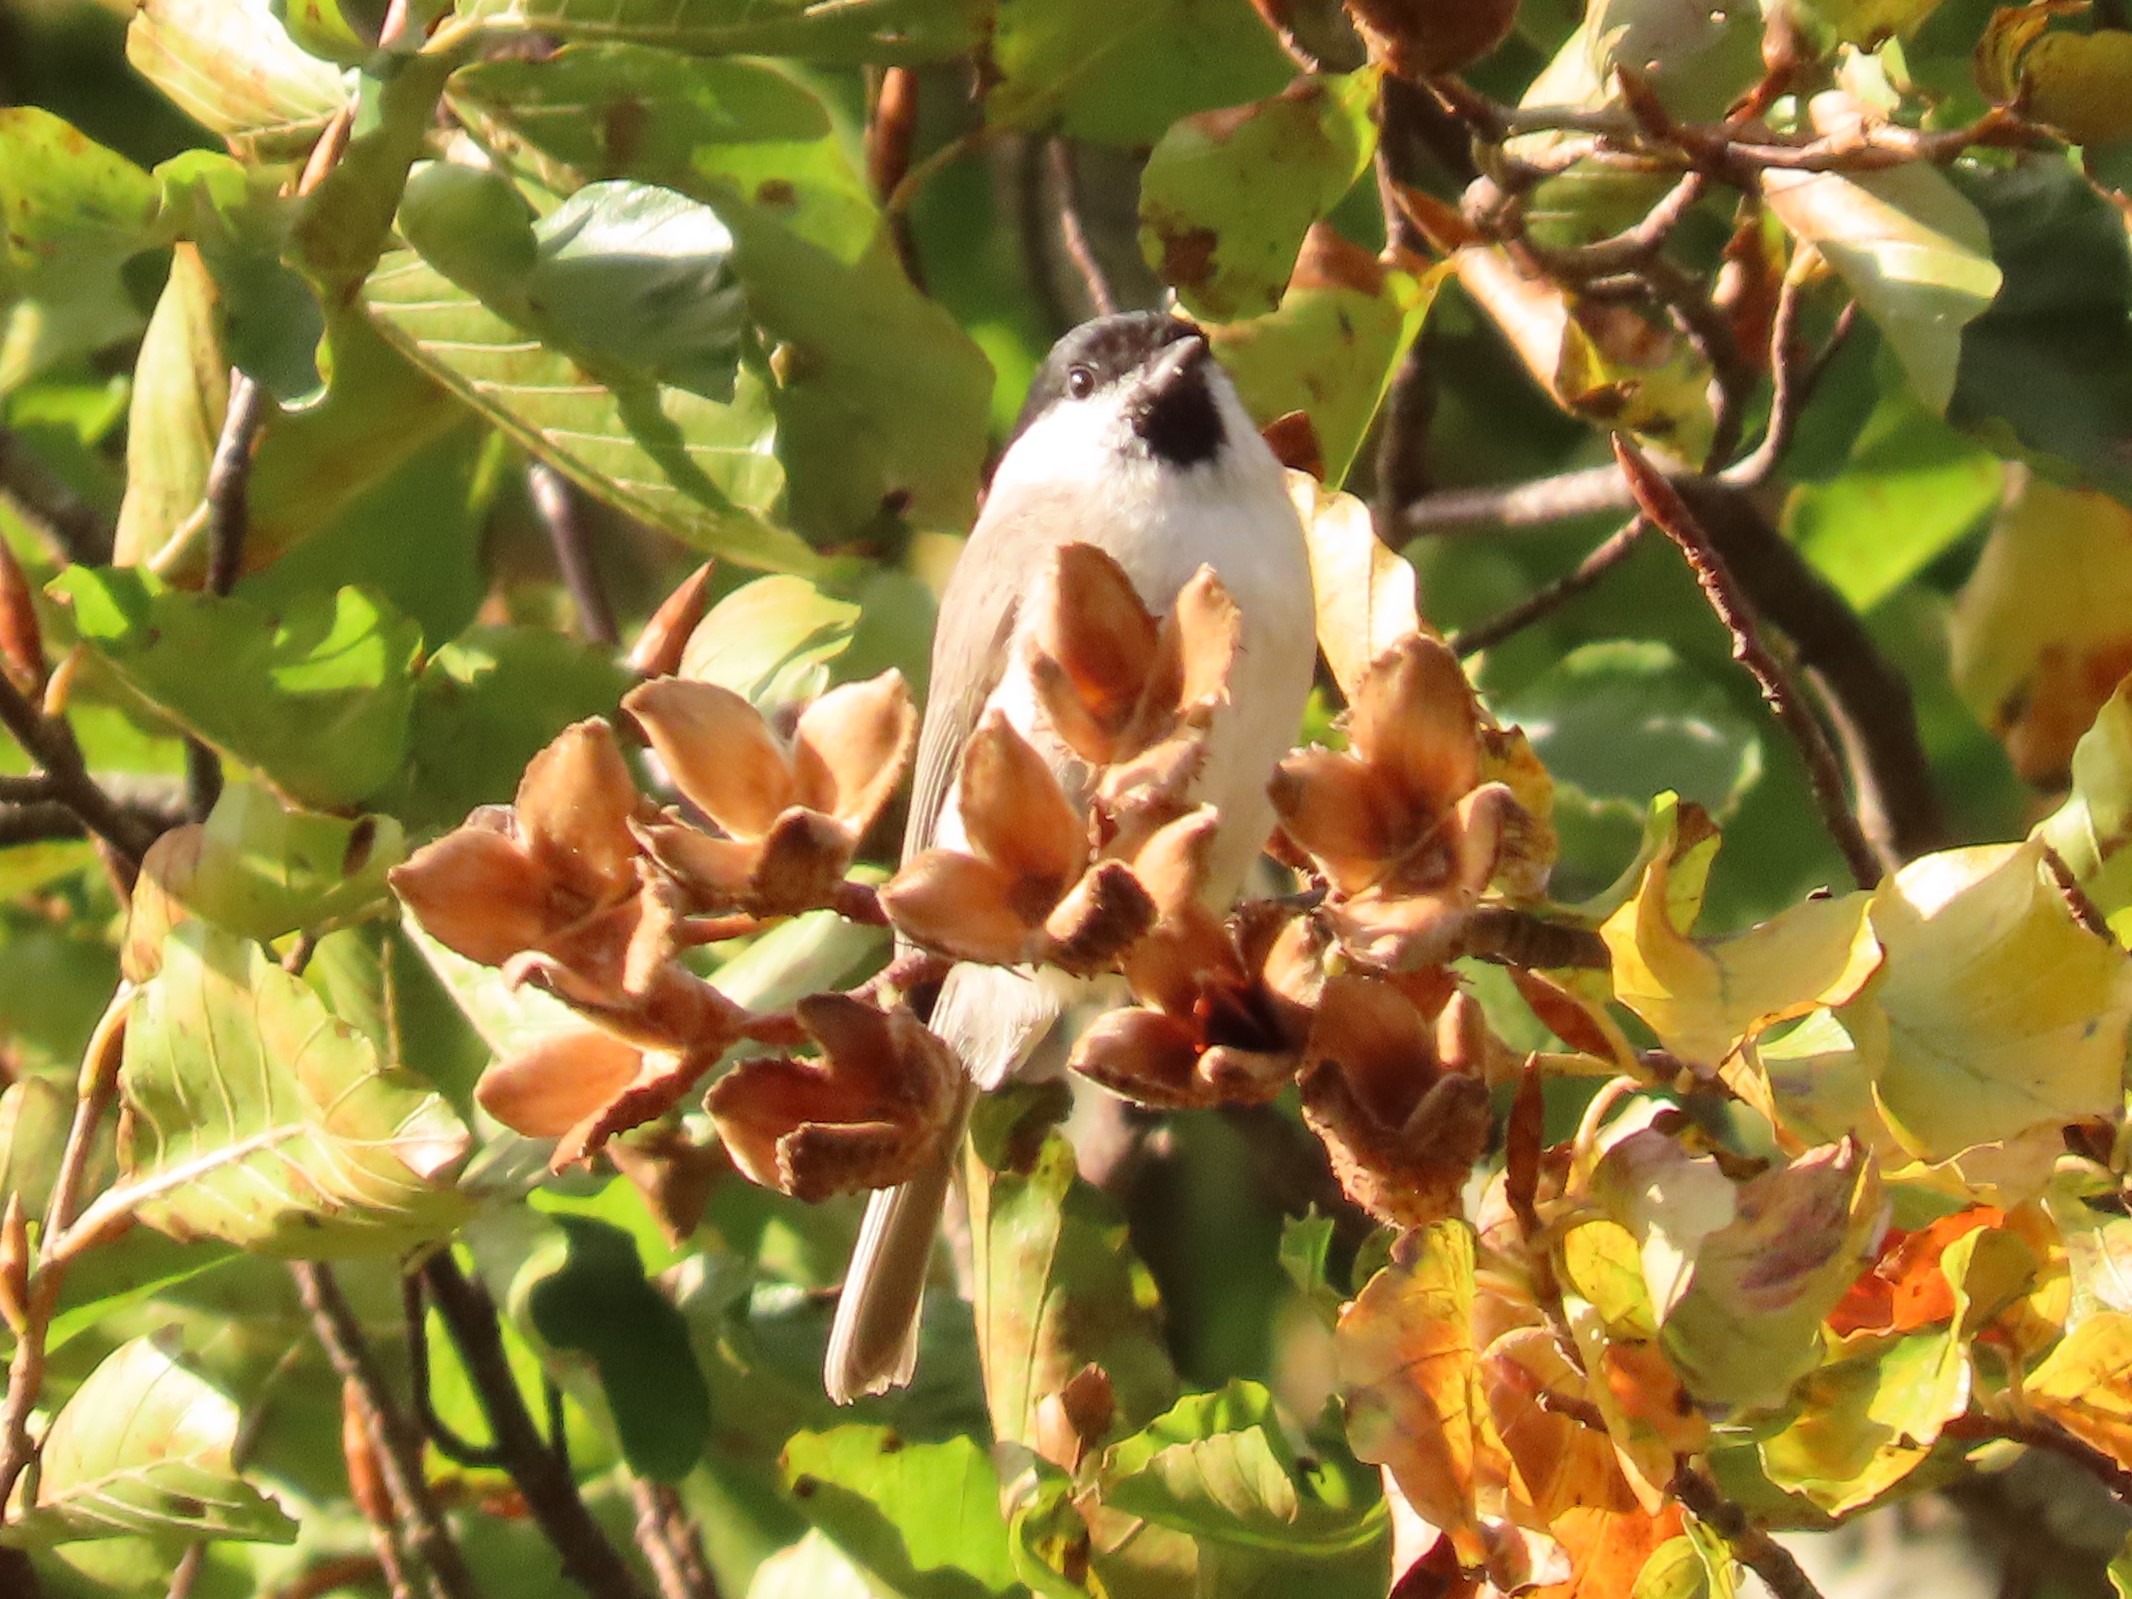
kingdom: Animalia
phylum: Chordata
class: Aves
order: Passeriformes
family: Paridae
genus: Poecile
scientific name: Poecile palustris
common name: Sumpmejse
